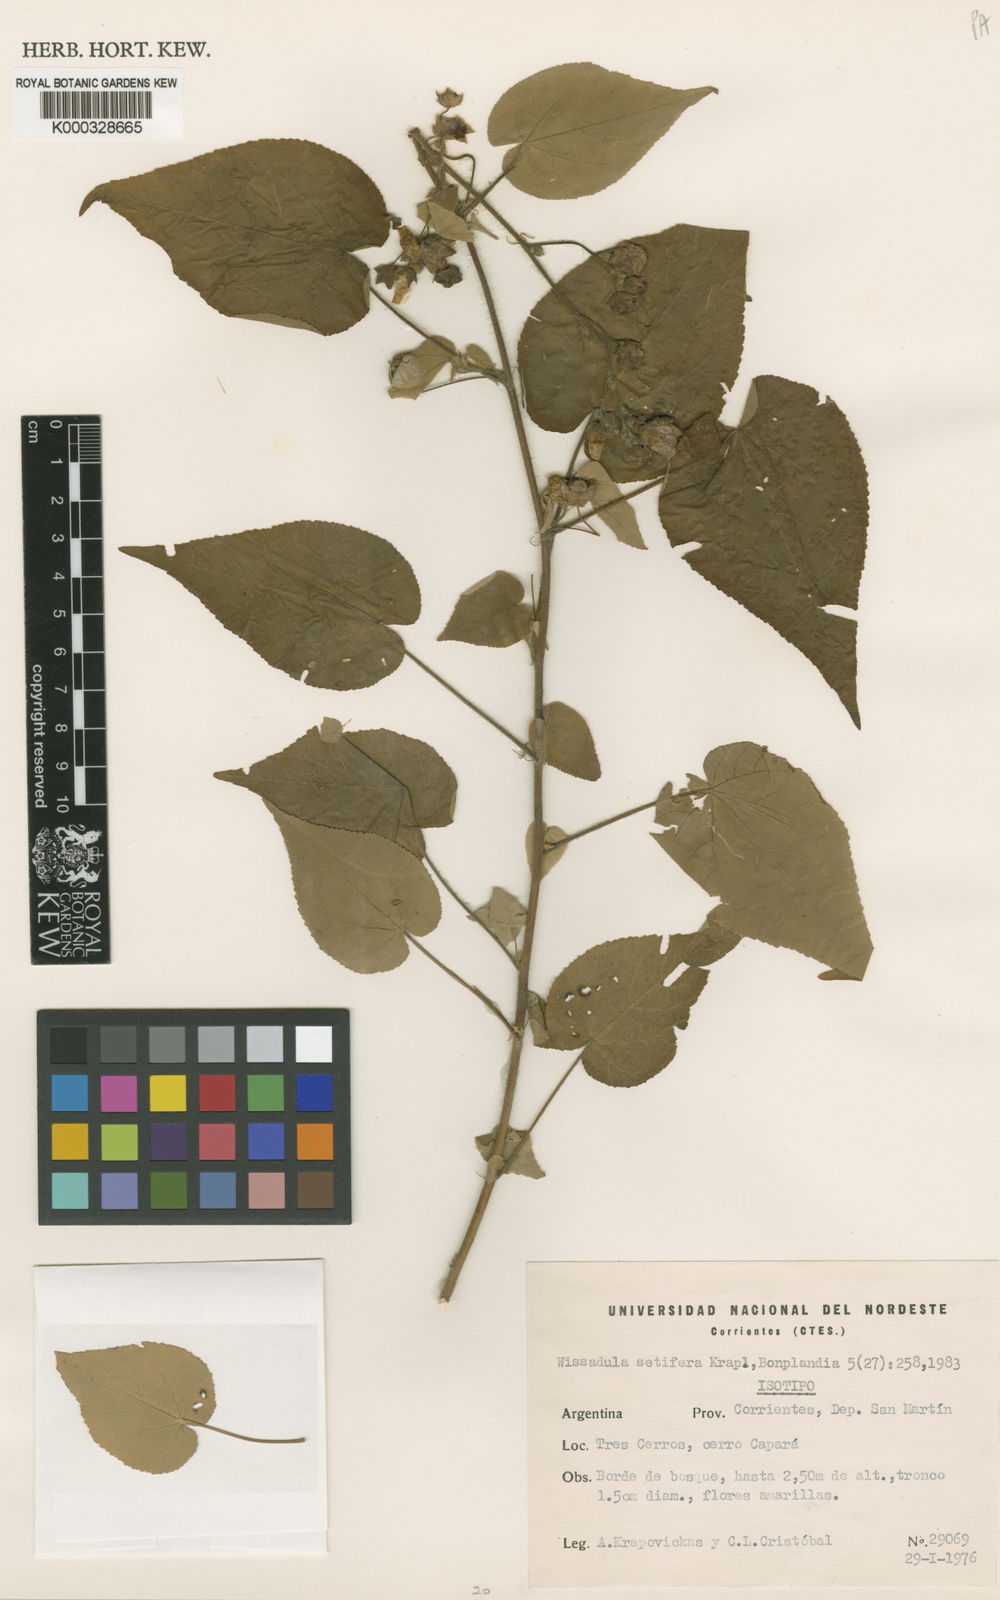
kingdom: Plantae
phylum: Tracheophyta
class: Magnoliopsida
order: Malvales
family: Malvaceae
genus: Wissadula
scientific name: Wissadula setifera
